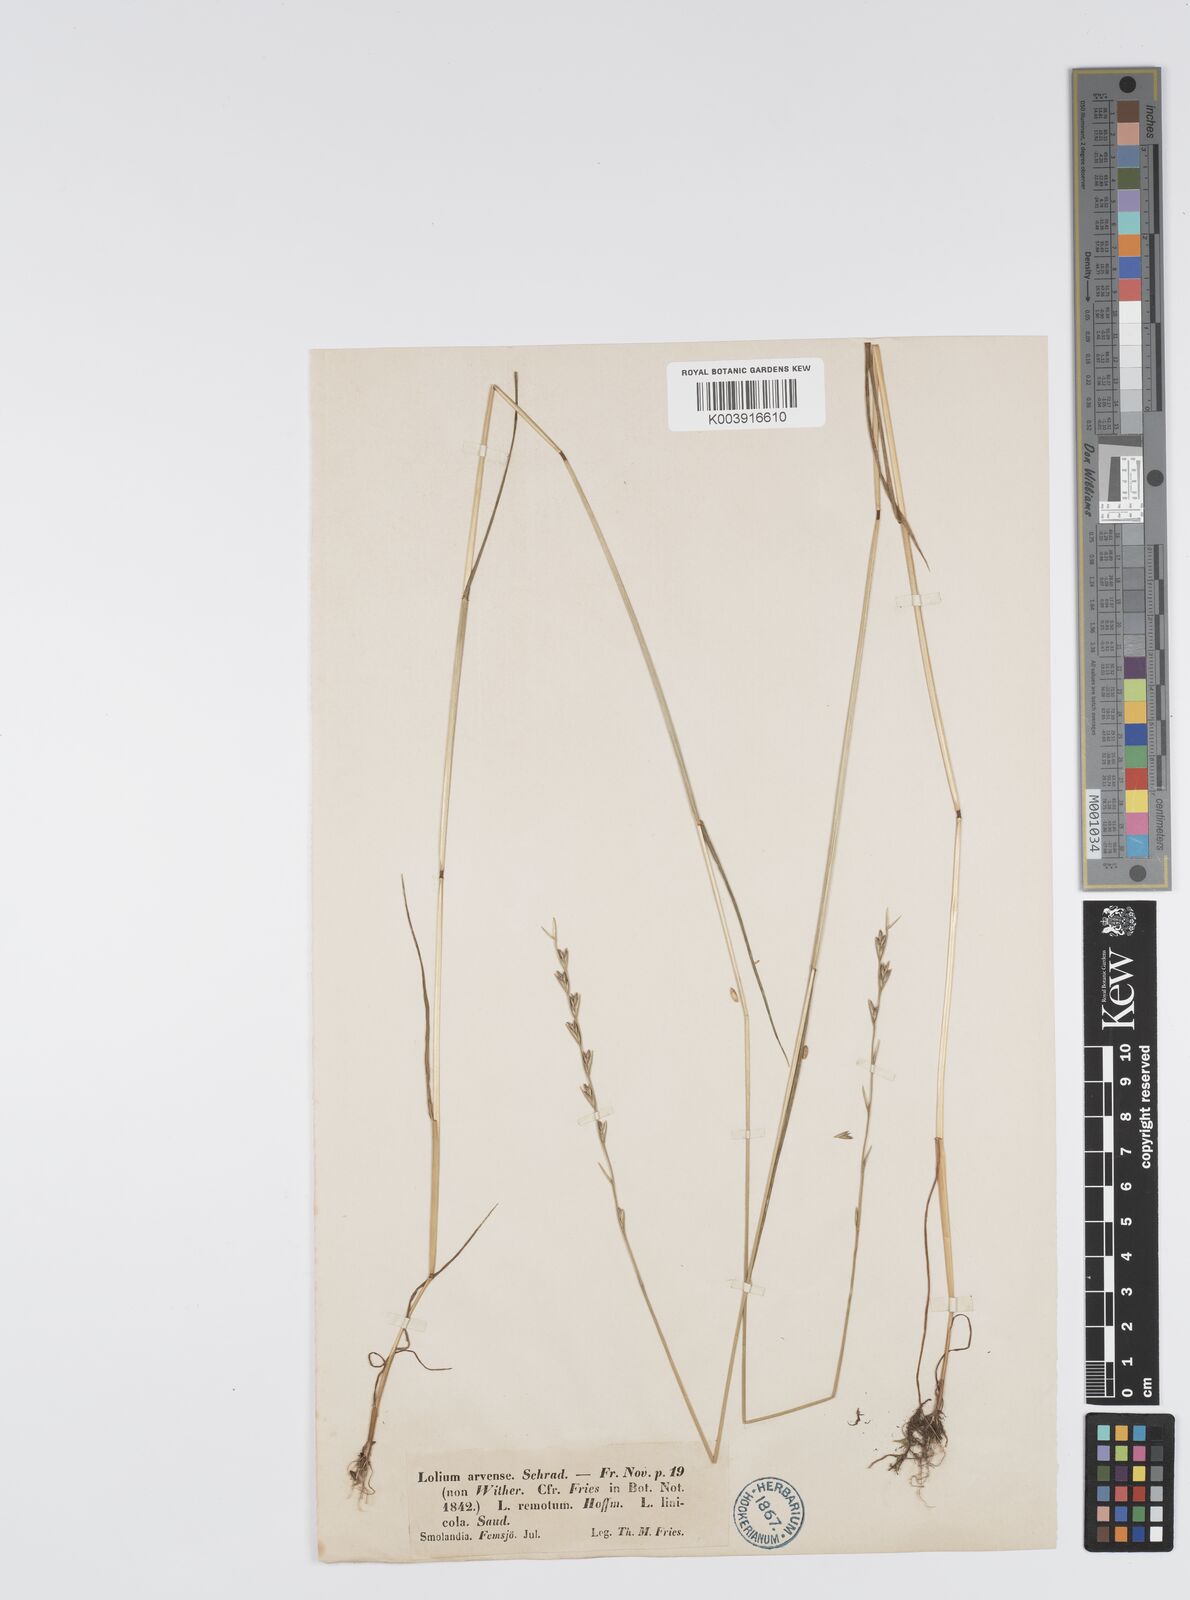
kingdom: Plantae
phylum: Tracheophyta
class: Liliopsida
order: Poales
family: Poaceae
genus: Lolium
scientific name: Lolium remotum
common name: Flaxfield rye-grass
